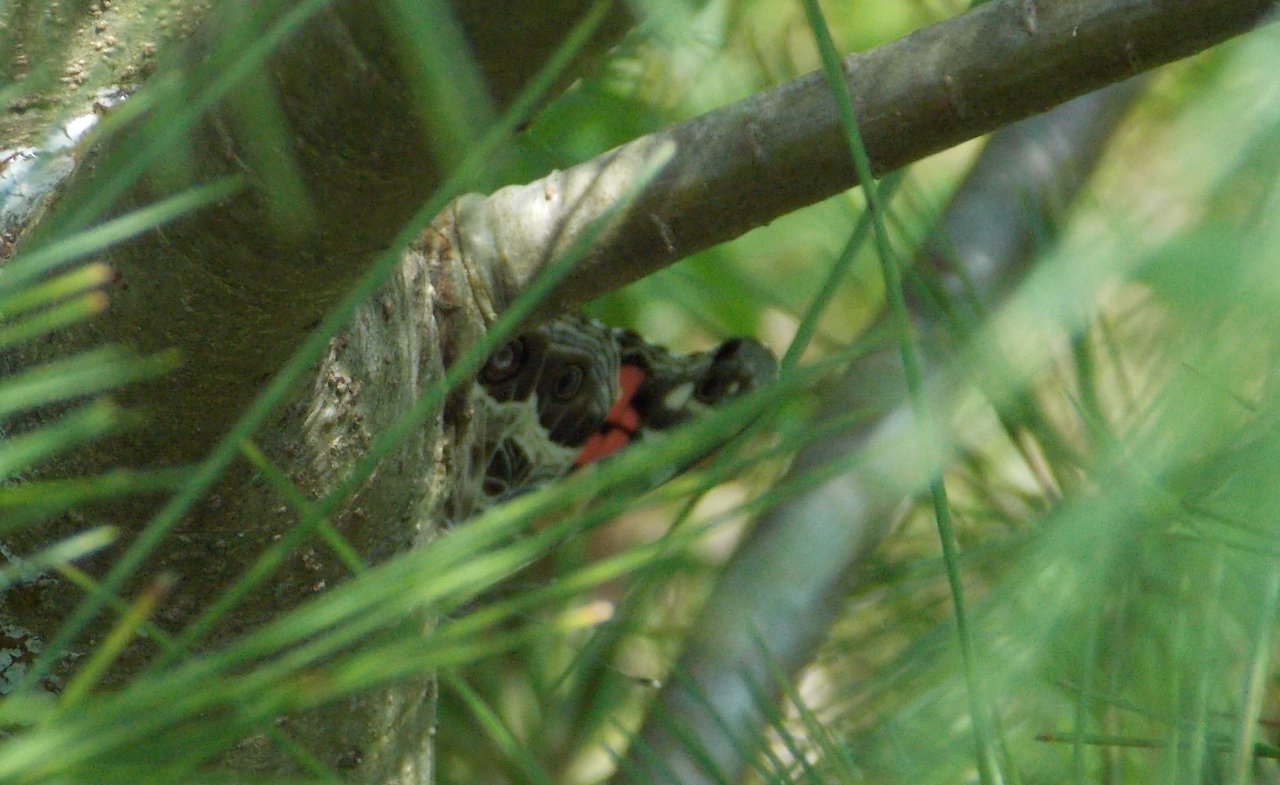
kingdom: Animalia
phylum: Arthropoda
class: Insecta
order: Lepidoptera
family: Nymphalidae
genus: Vanessa
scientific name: Vanessa virginiensis
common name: American Lady
